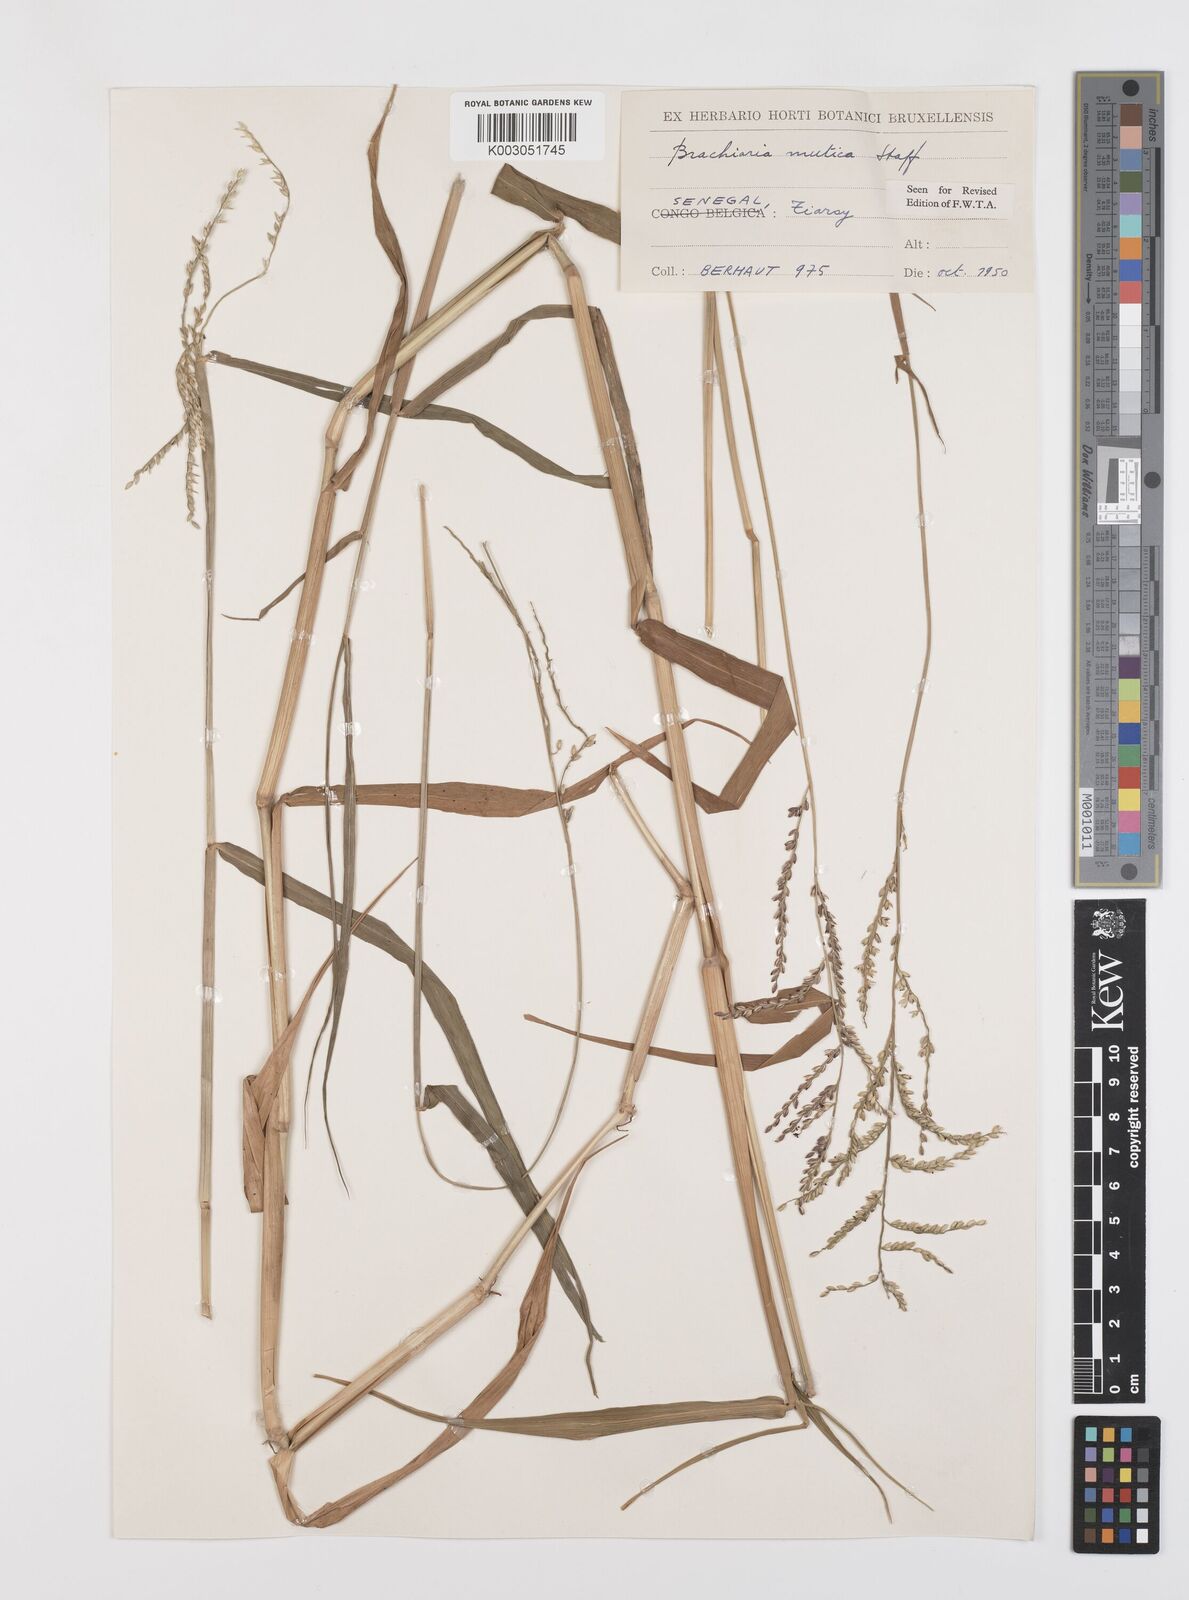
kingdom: Plantae
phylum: Tracheophyta
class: Liliopsida
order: Poales
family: Poaceae
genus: Urochloa
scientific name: Urochloa mutica
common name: Para grass
